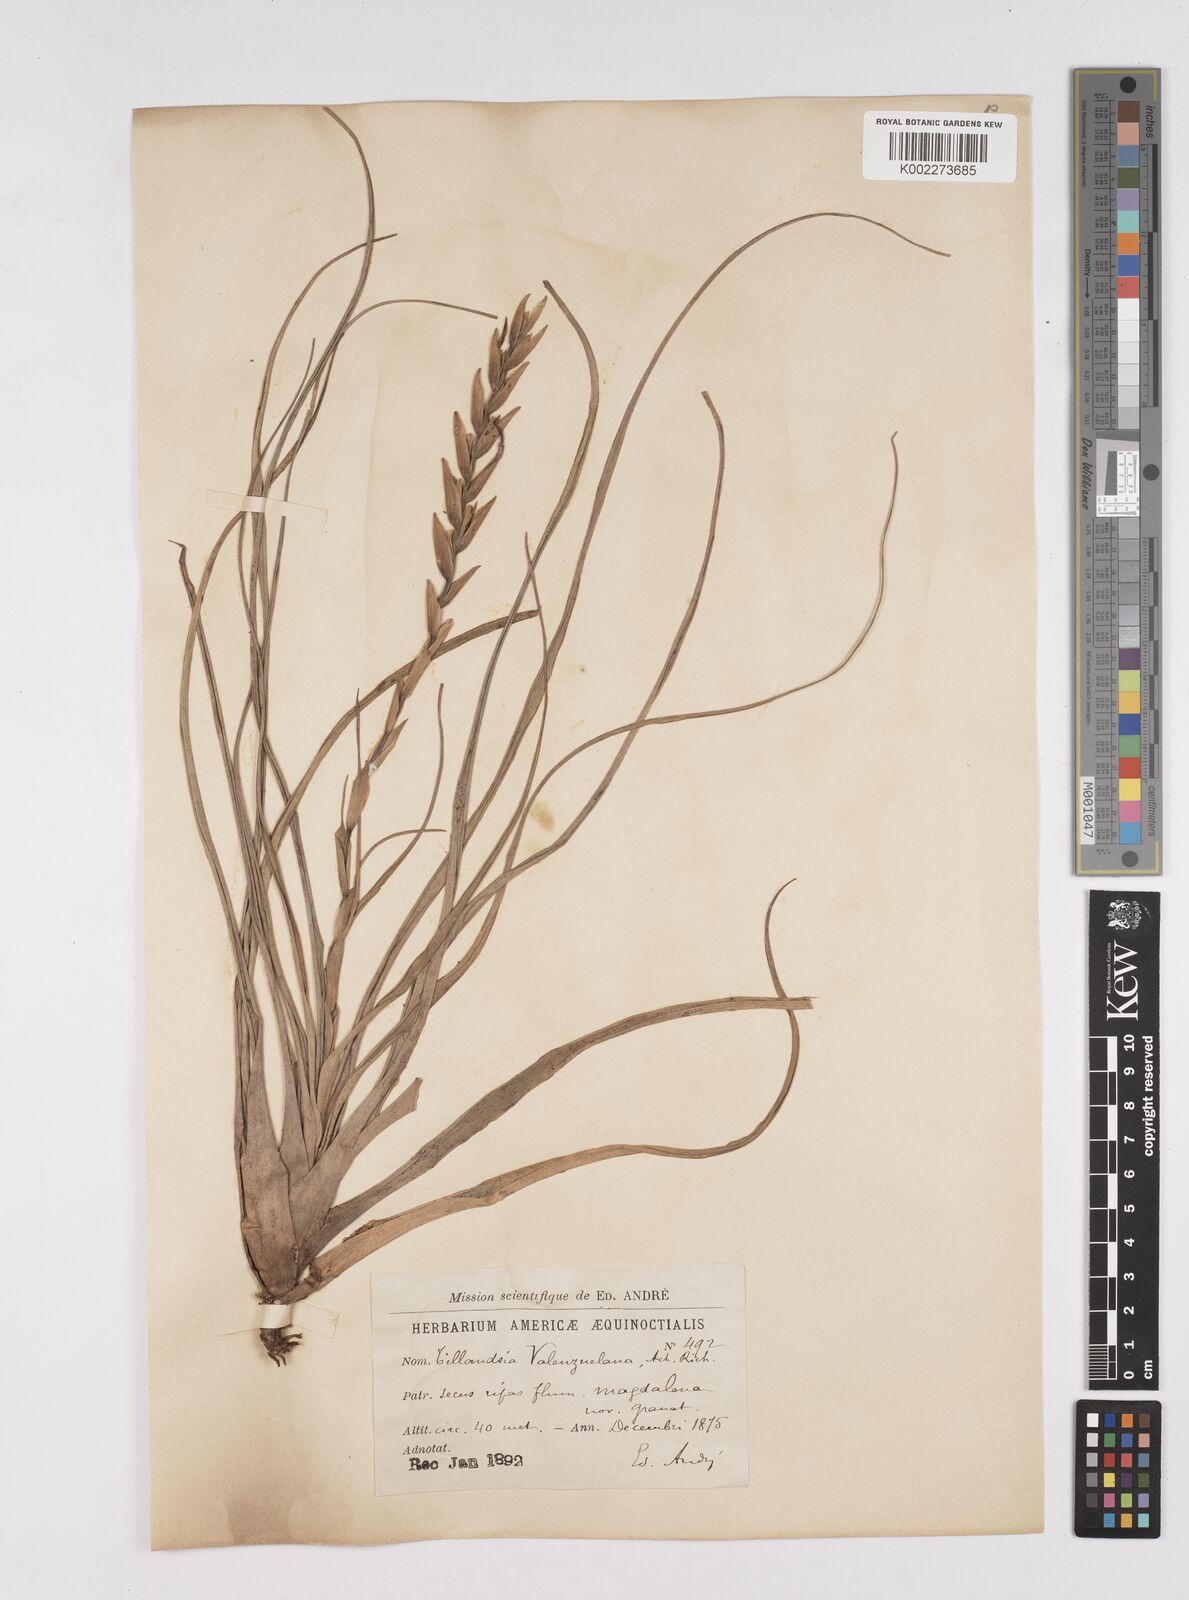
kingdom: Plantae
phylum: Tracheophyta
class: Liliopsida
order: Poales
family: Bromeliaceae
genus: Tillandsia
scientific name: Tillandsia variabilis
